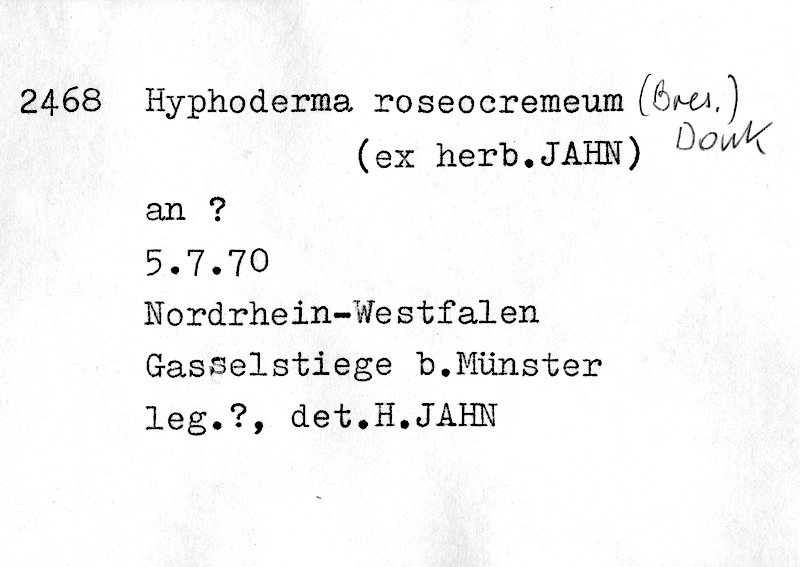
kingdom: Fungi
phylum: Basidiomycota
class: Agaricomycetes
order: Polyporales
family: Hyphodermataceae
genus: Hyphoderma
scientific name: Hyphoderma roseocremeum
